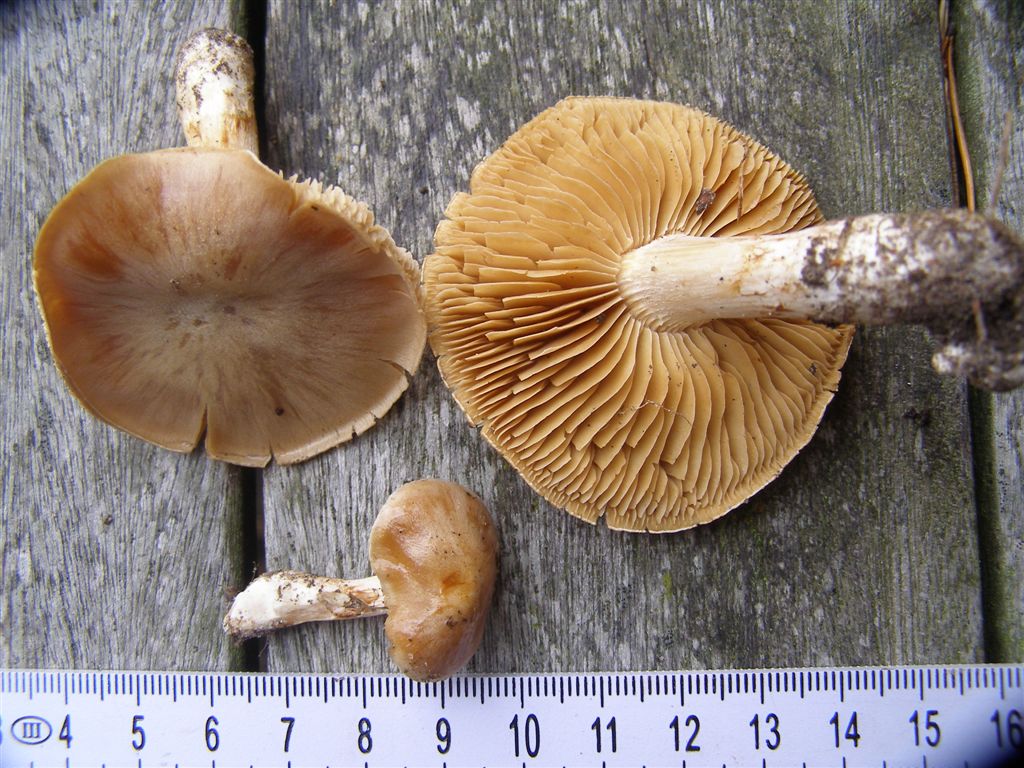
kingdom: Fungi
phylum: Basidiomycota
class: Agaricomycetes
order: Agaricales
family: Cortinariaceae
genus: Thaxterogaster
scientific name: Thaxterogaster leucoluteolus
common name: isabella slørhat
